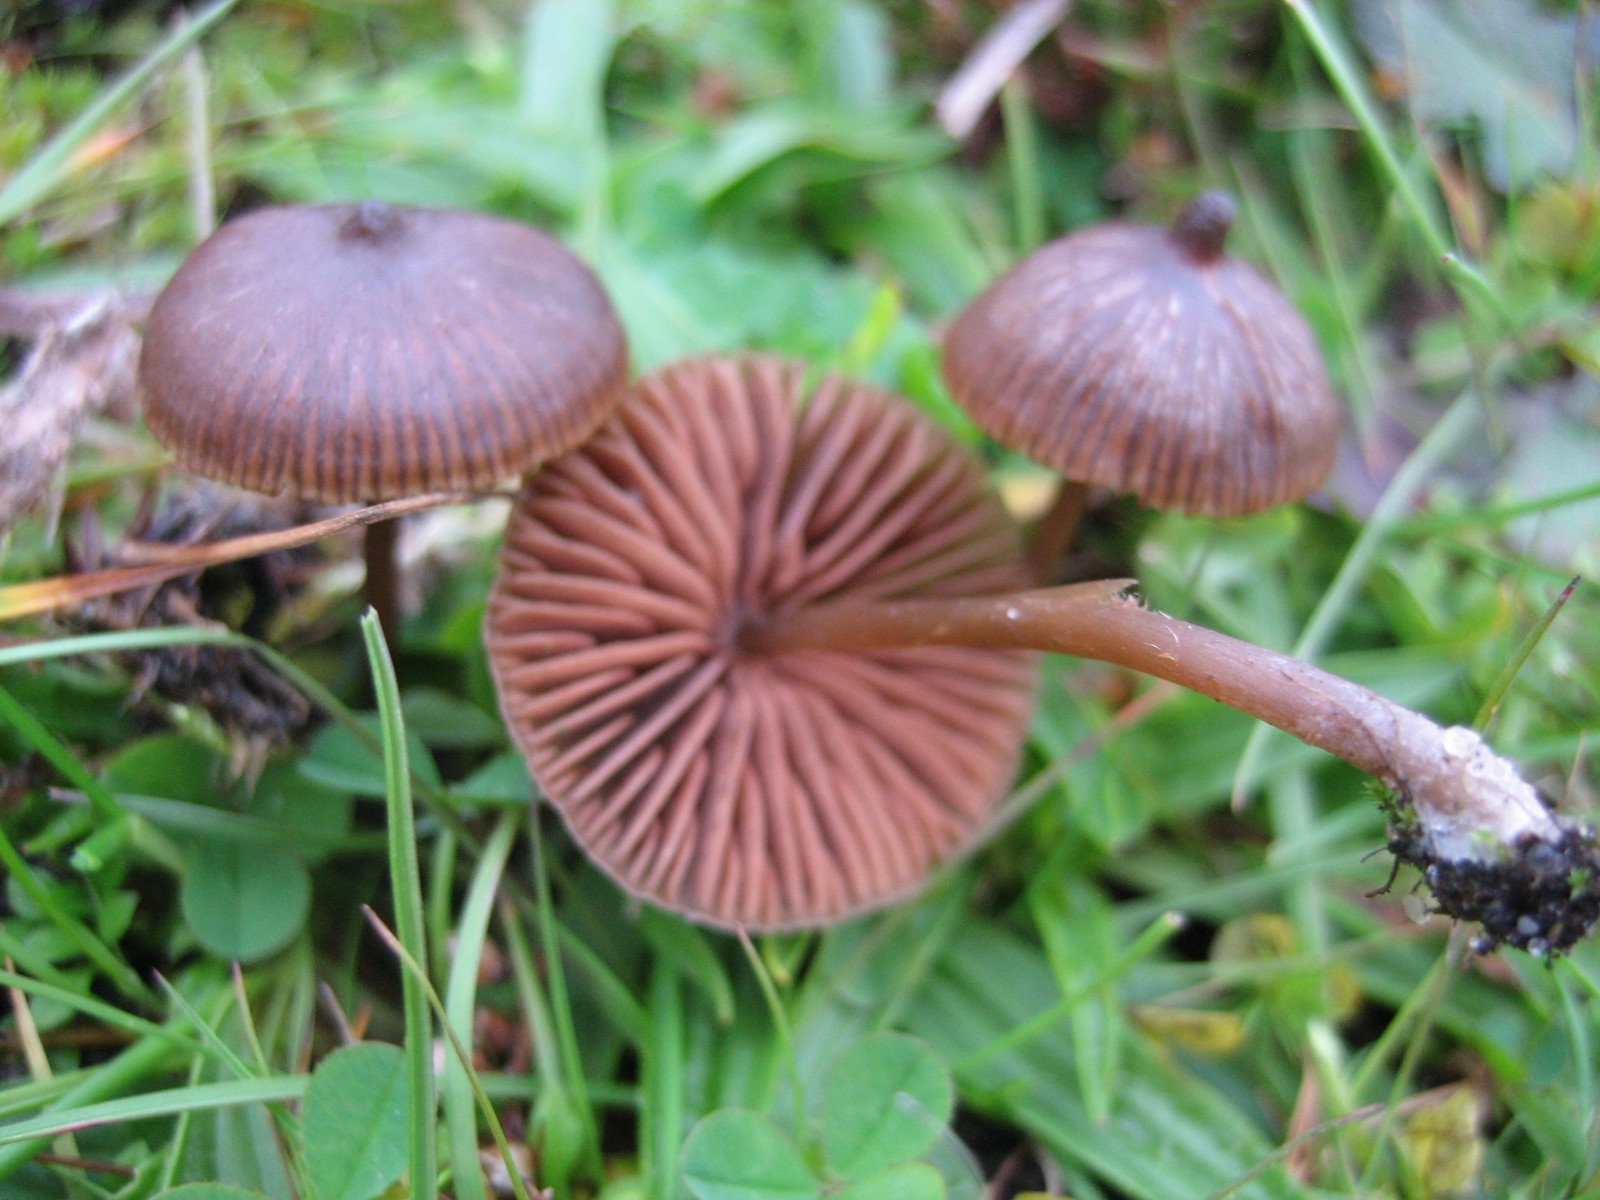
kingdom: Fungi
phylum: Basidiomycota
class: Agaricomycetes
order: Agaricales
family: Entolomataceae
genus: Entoloma
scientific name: Entoloma
